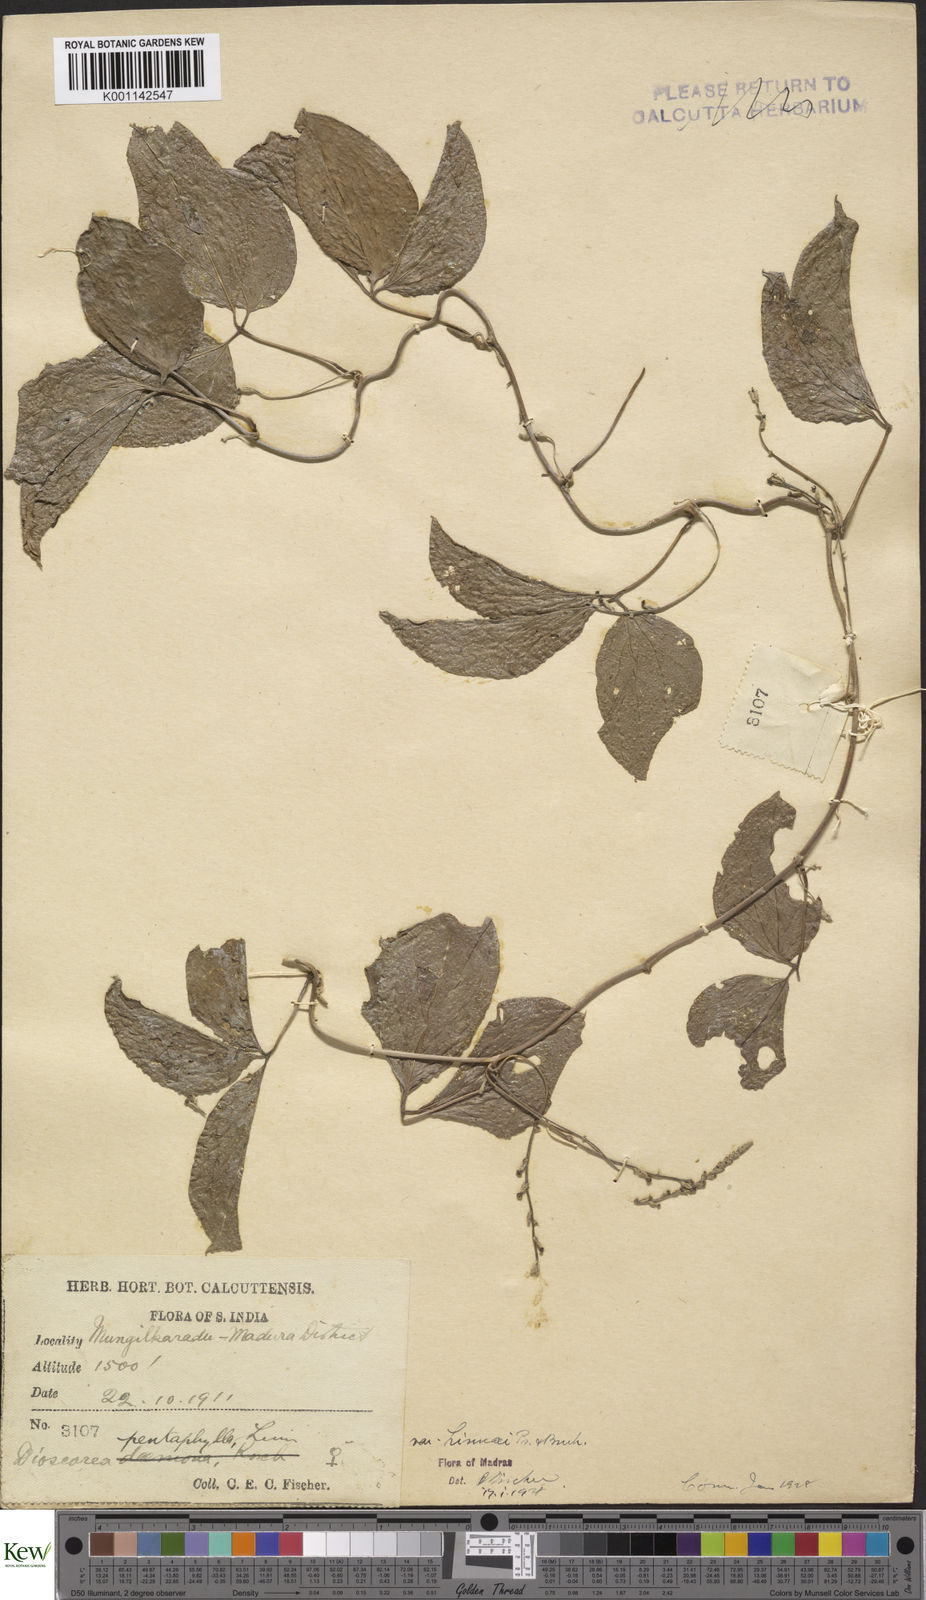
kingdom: Plantae
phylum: Tracheophyta
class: Liliopsida
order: Dioscoreales
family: Dioscoreaceae
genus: Dioscorea
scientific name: Dioscorea pentaphylla
